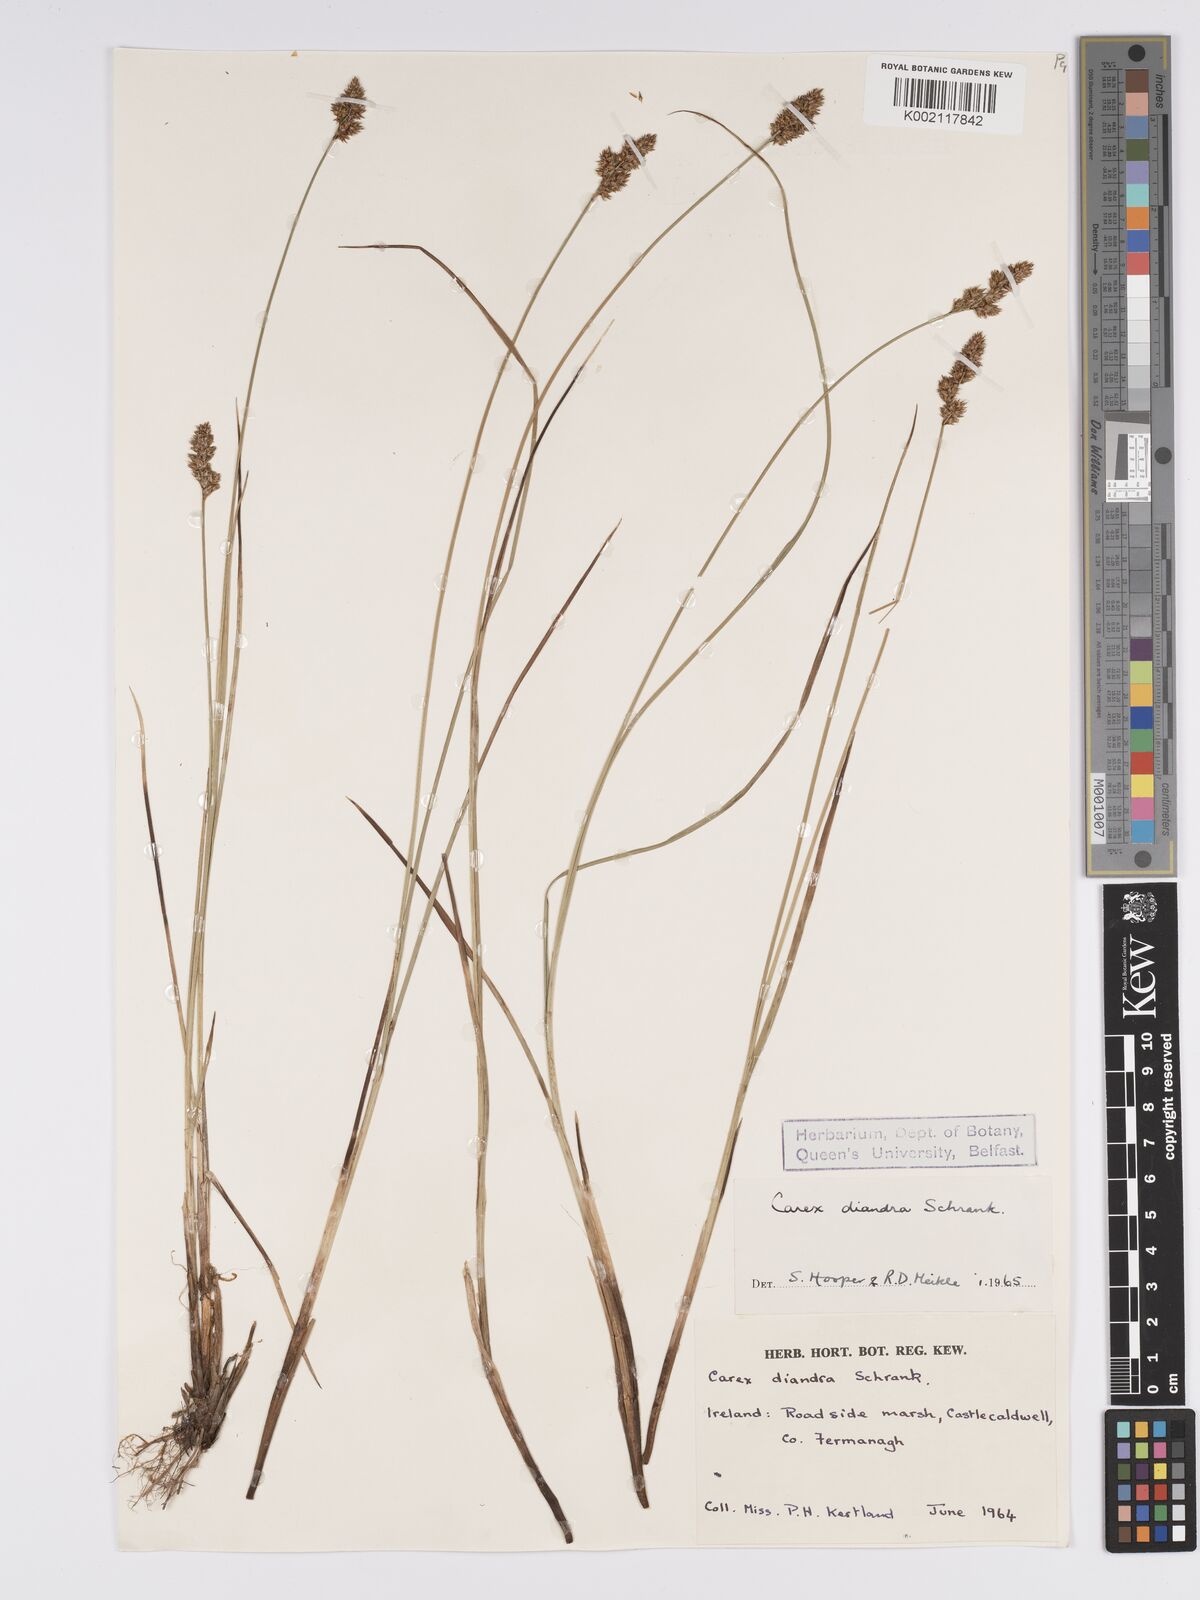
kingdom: Plantae
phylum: Tracheophyta
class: Liliopsida
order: Poales
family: Cyperaceae
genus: Carex
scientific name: Carex diandra
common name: Lesser tussock-sedge
